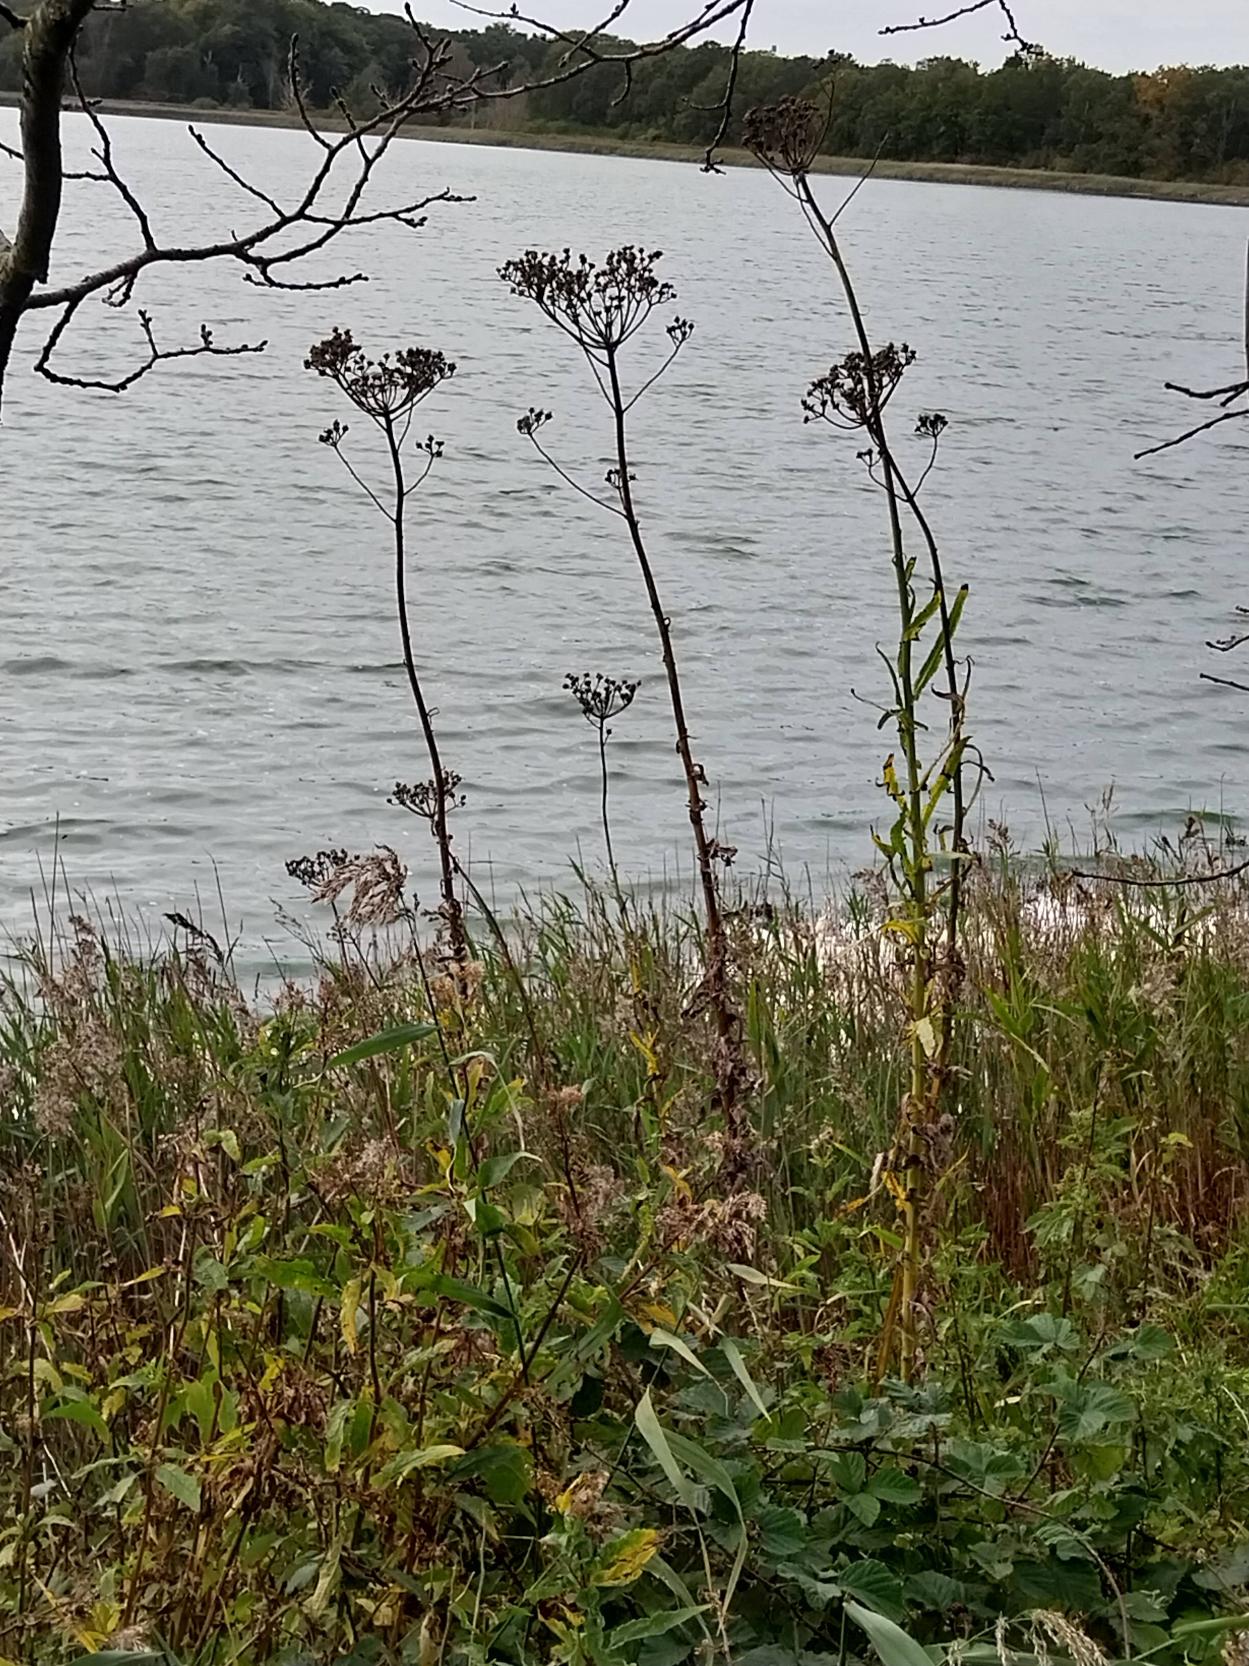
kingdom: Plantae
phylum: Tracheophyta
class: Magnoliopsida
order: Asterales
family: Asteraceae
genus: Sonchus
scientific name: Sonchus palustris
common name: Kær-svinemælk
